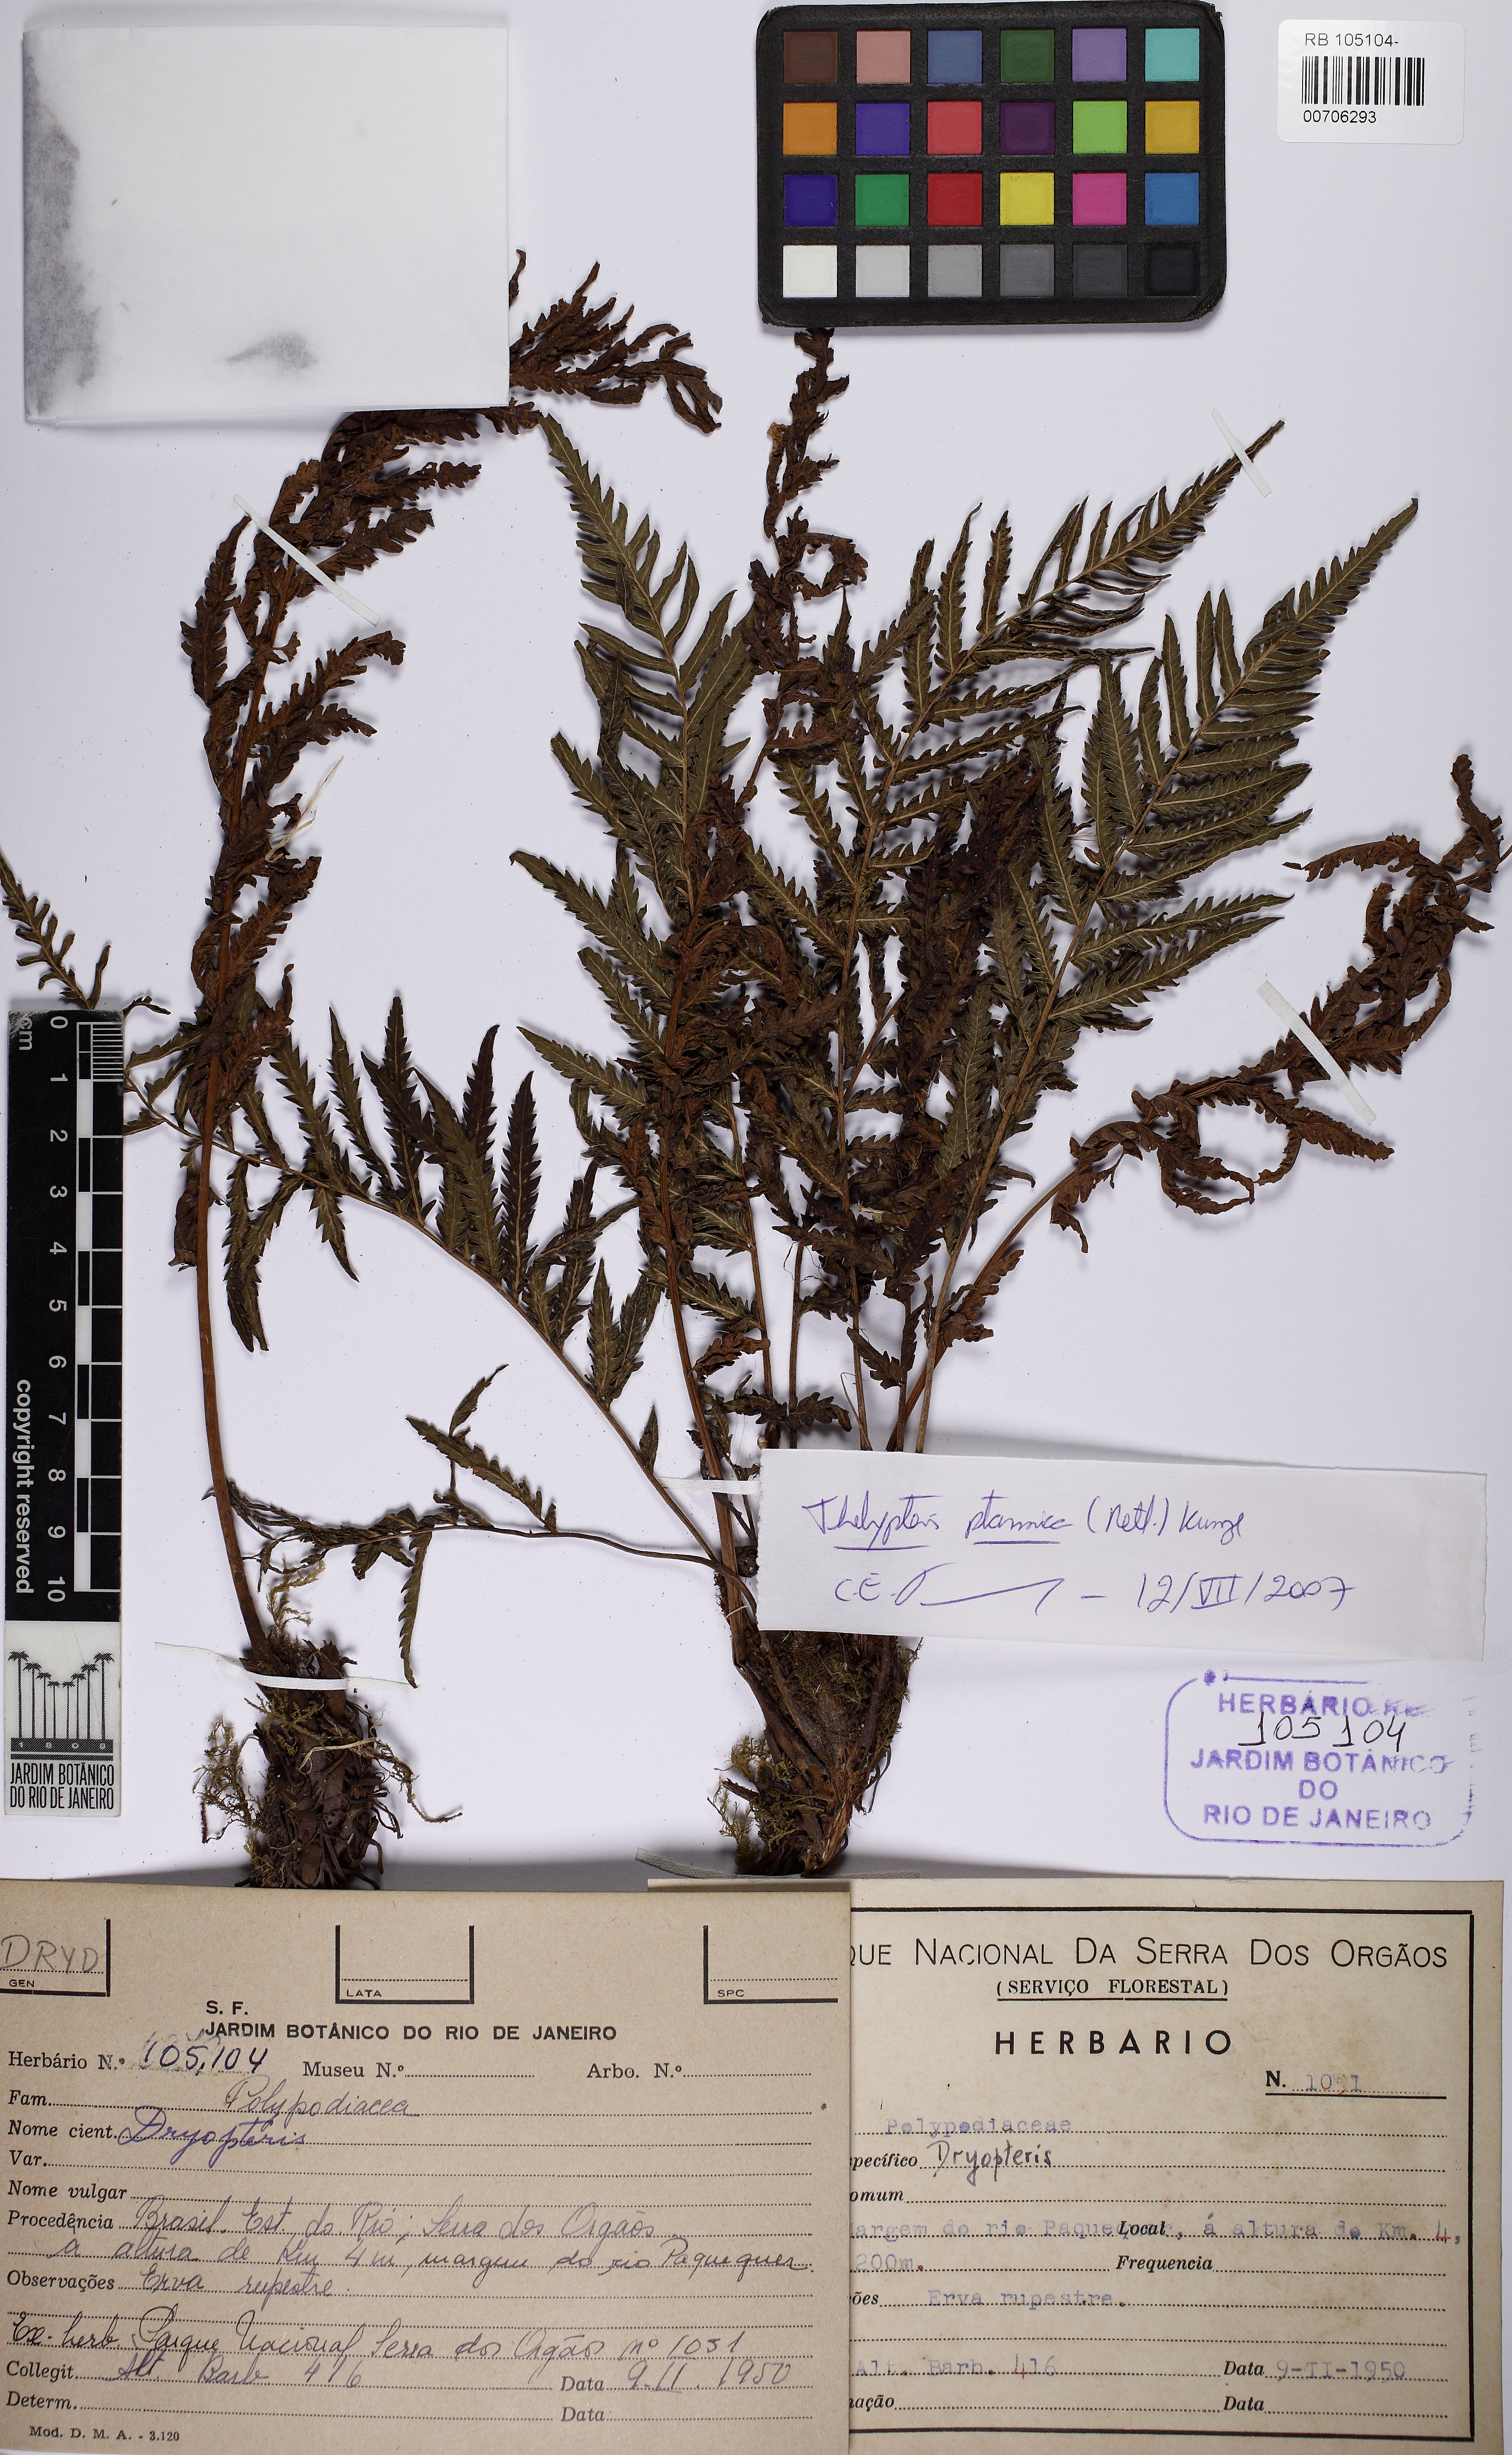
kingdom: Plantae
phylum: Tracheophyta
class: Polypodiopsida
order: Polypodiales
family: Thelypteridaceae
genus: Amauropelta
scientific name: Amauropelta saxicola
